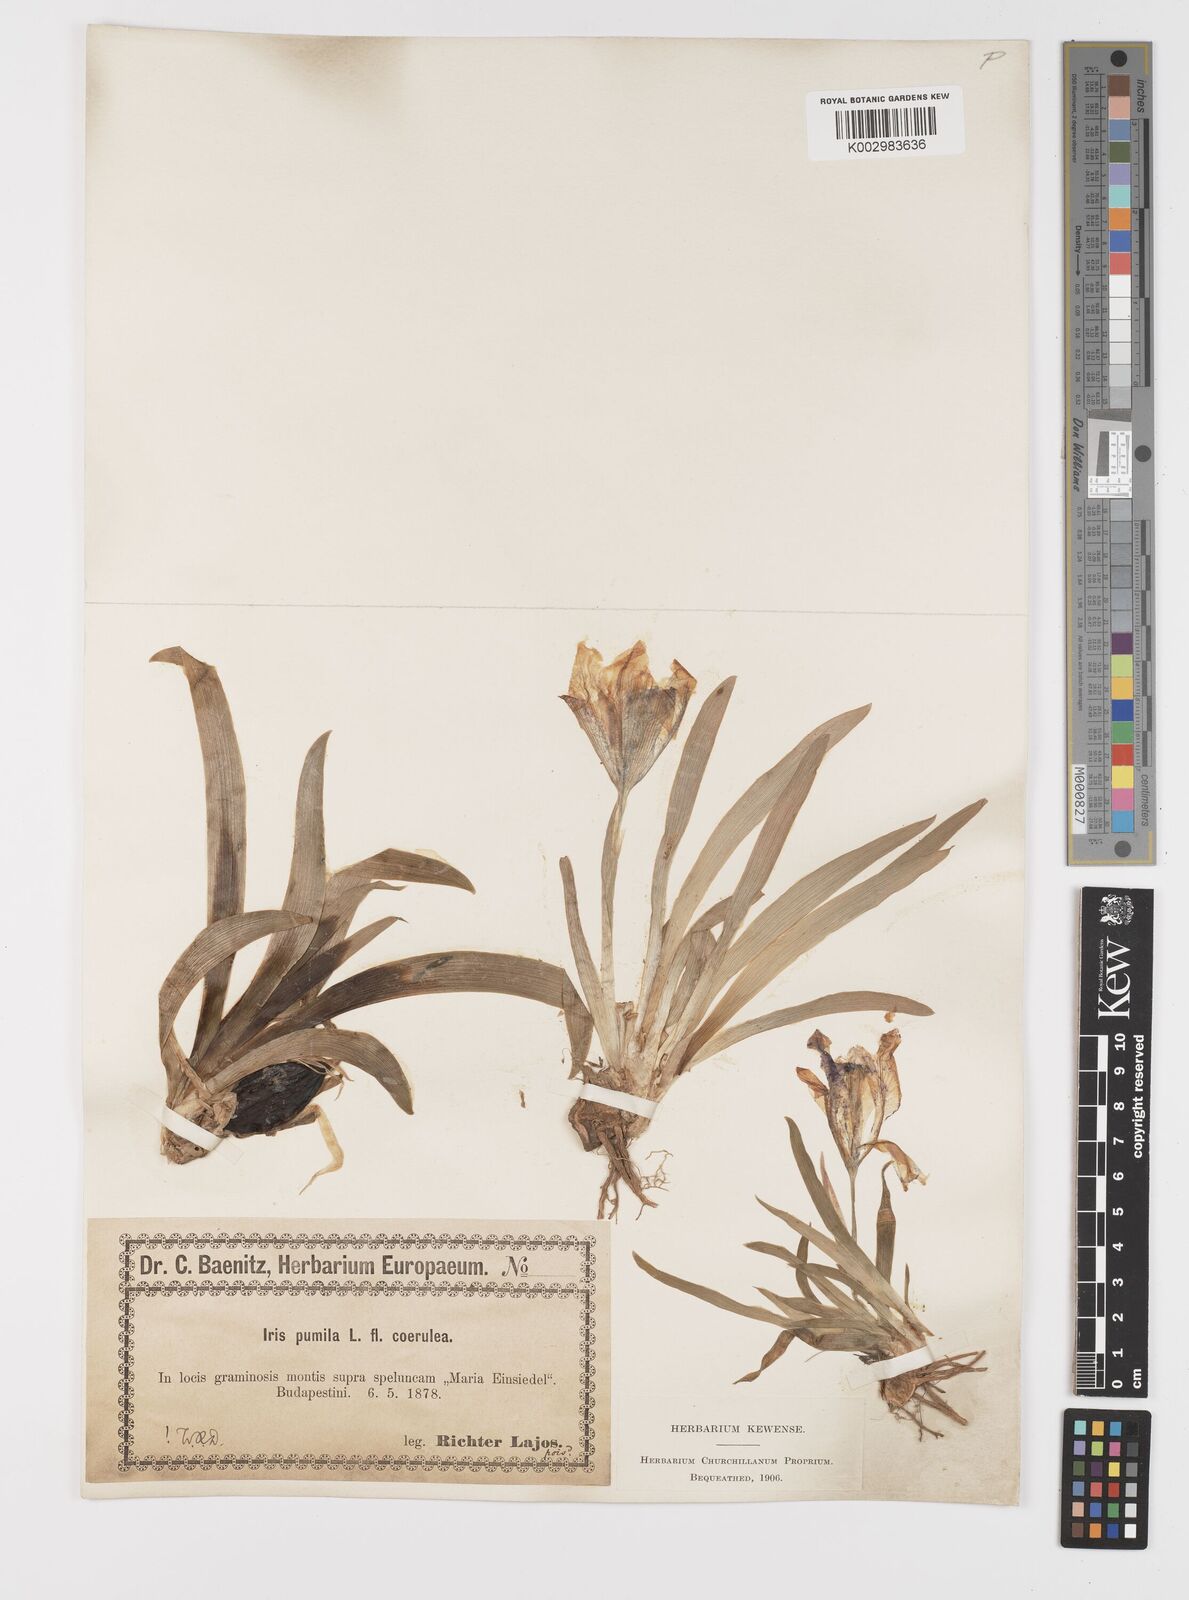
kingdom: Plantae
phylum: Tracheophyta
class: Liliopsida
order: Asparagales
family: Iridaceae
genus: Iris
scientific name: Iris pumila
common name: Dwarf iris
